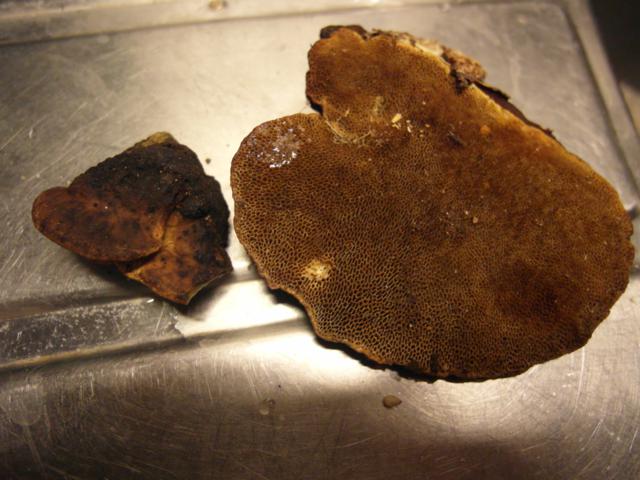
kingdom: Fungi
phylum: Basidiomycota
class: Agaricomycetes
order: Polyporales
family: Polyporaceae
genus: Daedaleopsis
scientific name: Daedaleopsis confragosa
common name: rødmende læderporesvamp
